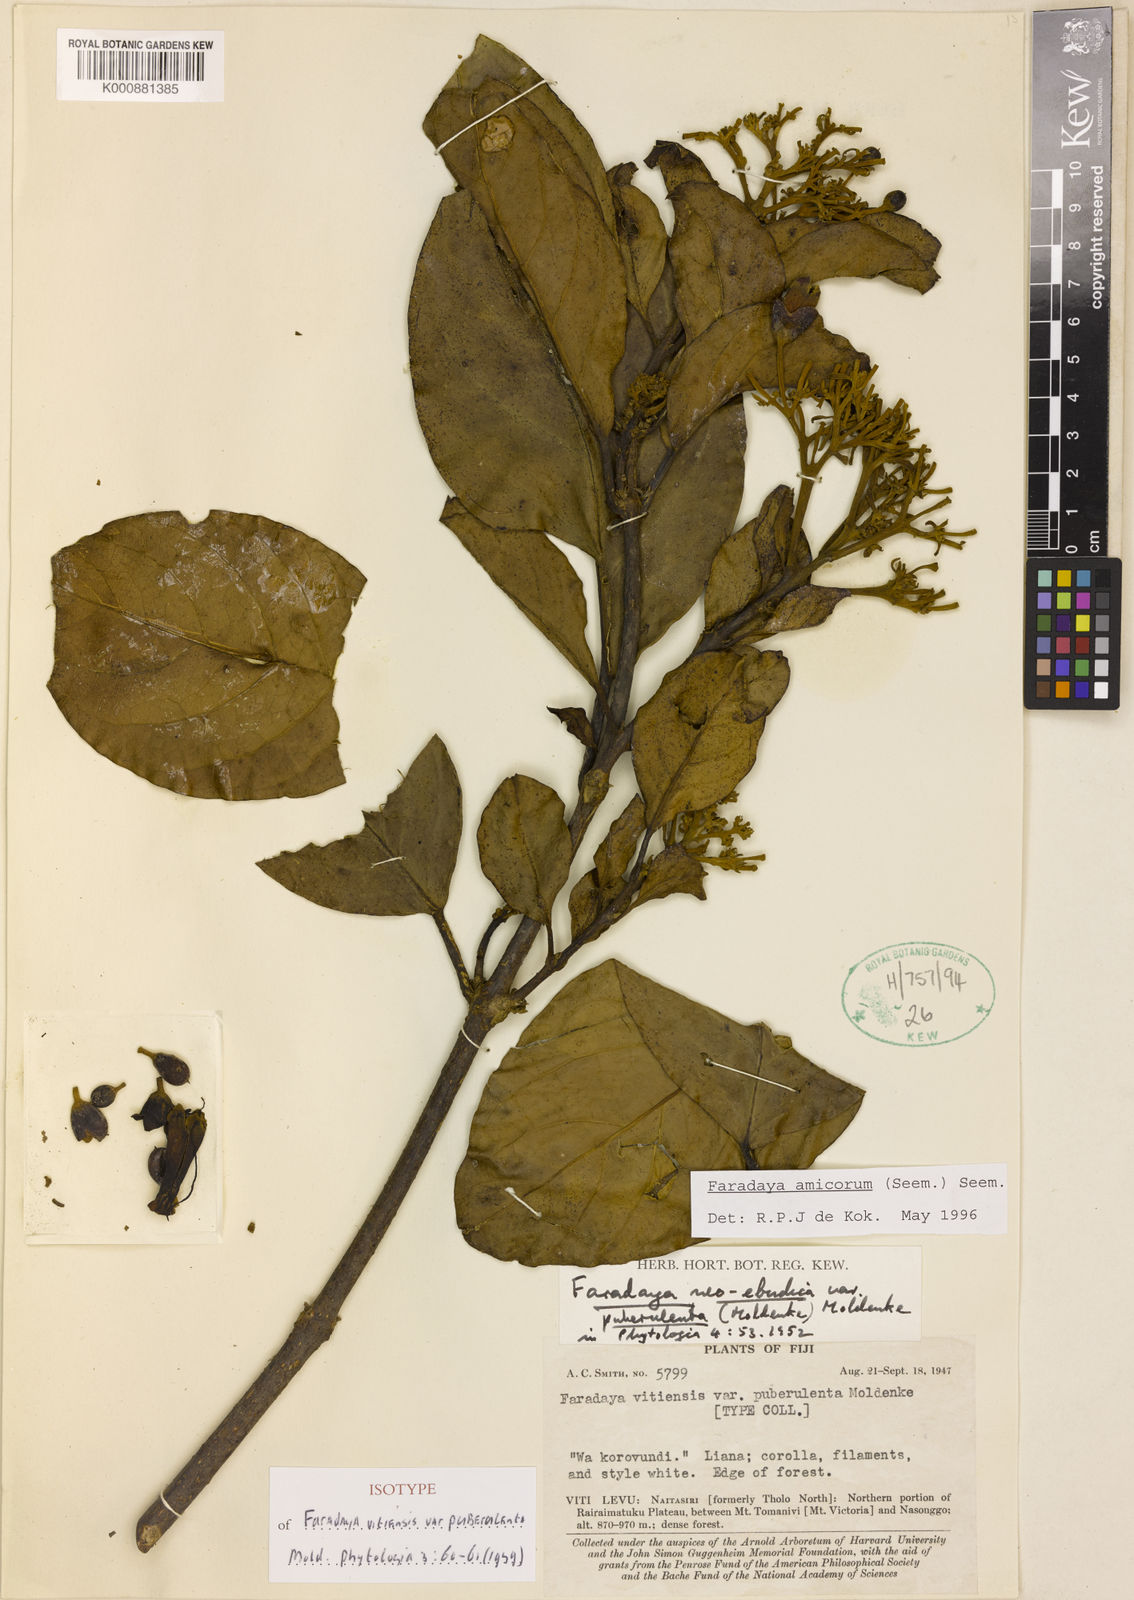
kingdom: Plantae
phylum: Tracheophyta
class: Magnoliopsida
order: Lamiales
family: Lamiaceae
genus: Oxera
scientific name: Oxera amicorum
